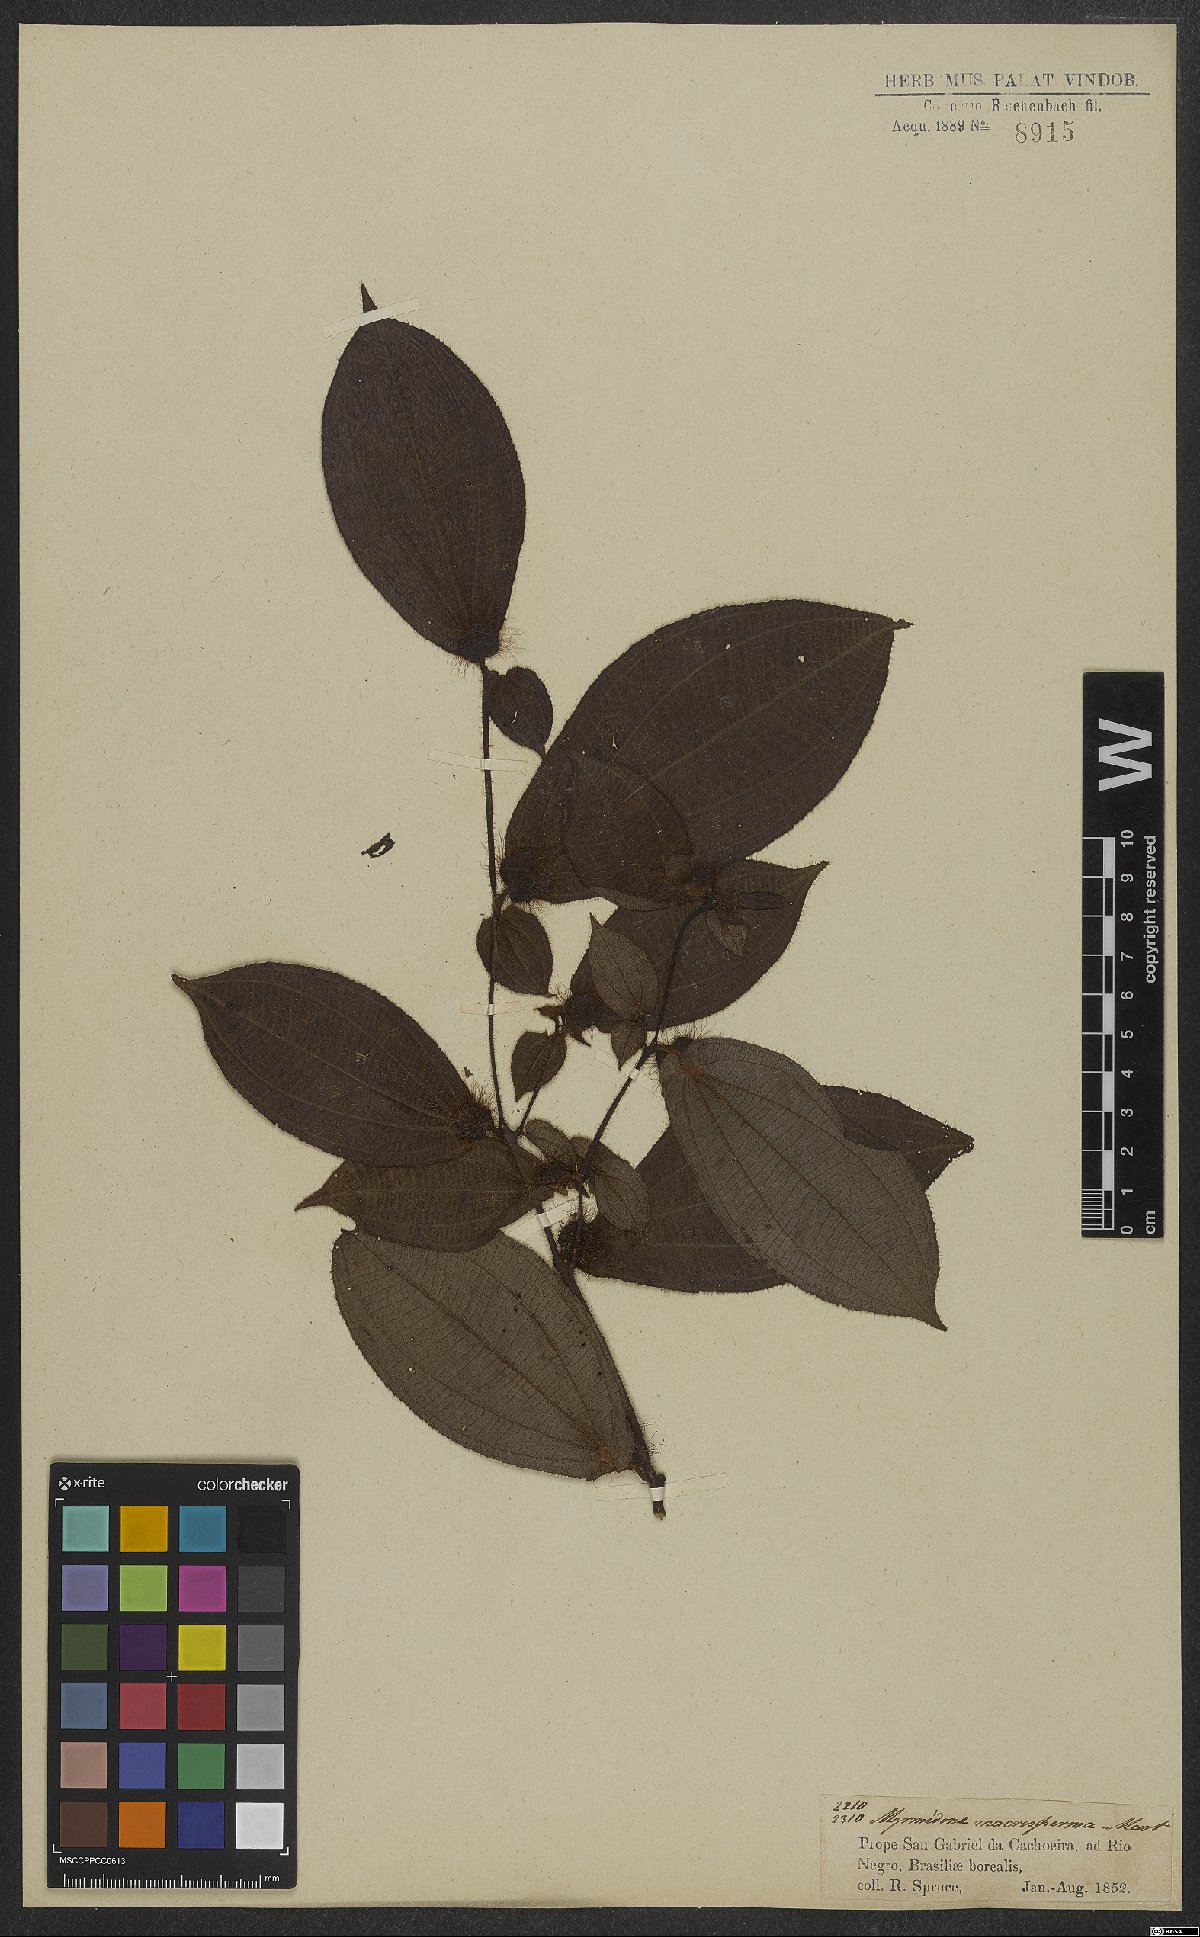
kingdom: Plantae
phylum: Tracheophyta
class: Magnoliopsida
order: Myrtales
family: Melastomataceae
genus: Miconia
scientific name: Miconia macrosperma
